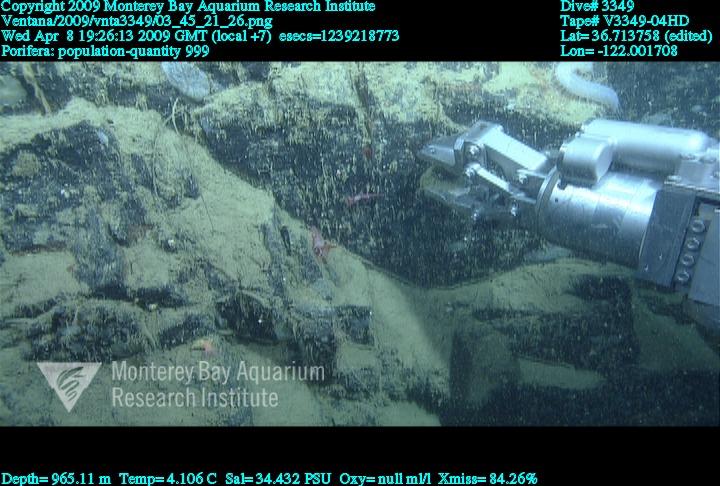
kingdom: Animalia
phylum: Porifera
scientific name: Porifera
